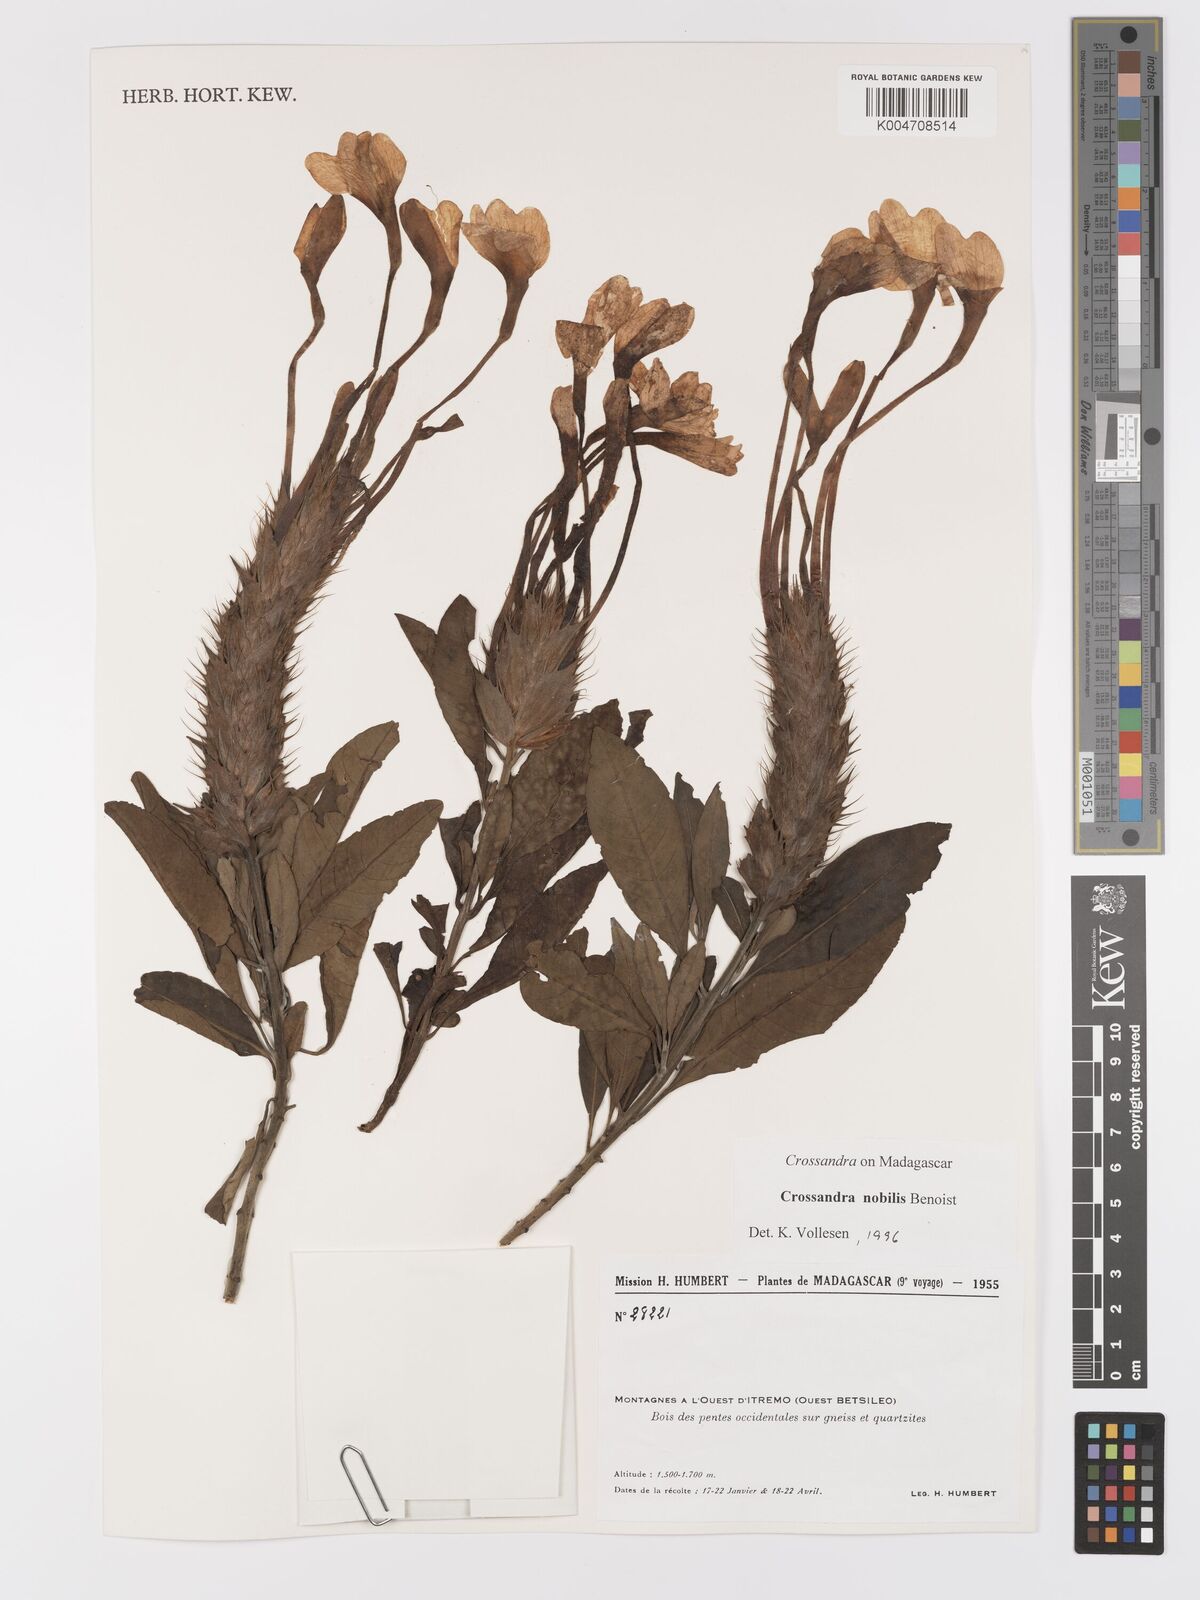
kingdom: Plantae
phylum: Tracheophyta
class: Magnoliopsida
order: Lamiales
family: Acanthaceae
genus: Crossandra
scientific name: Crossandra nobilis
